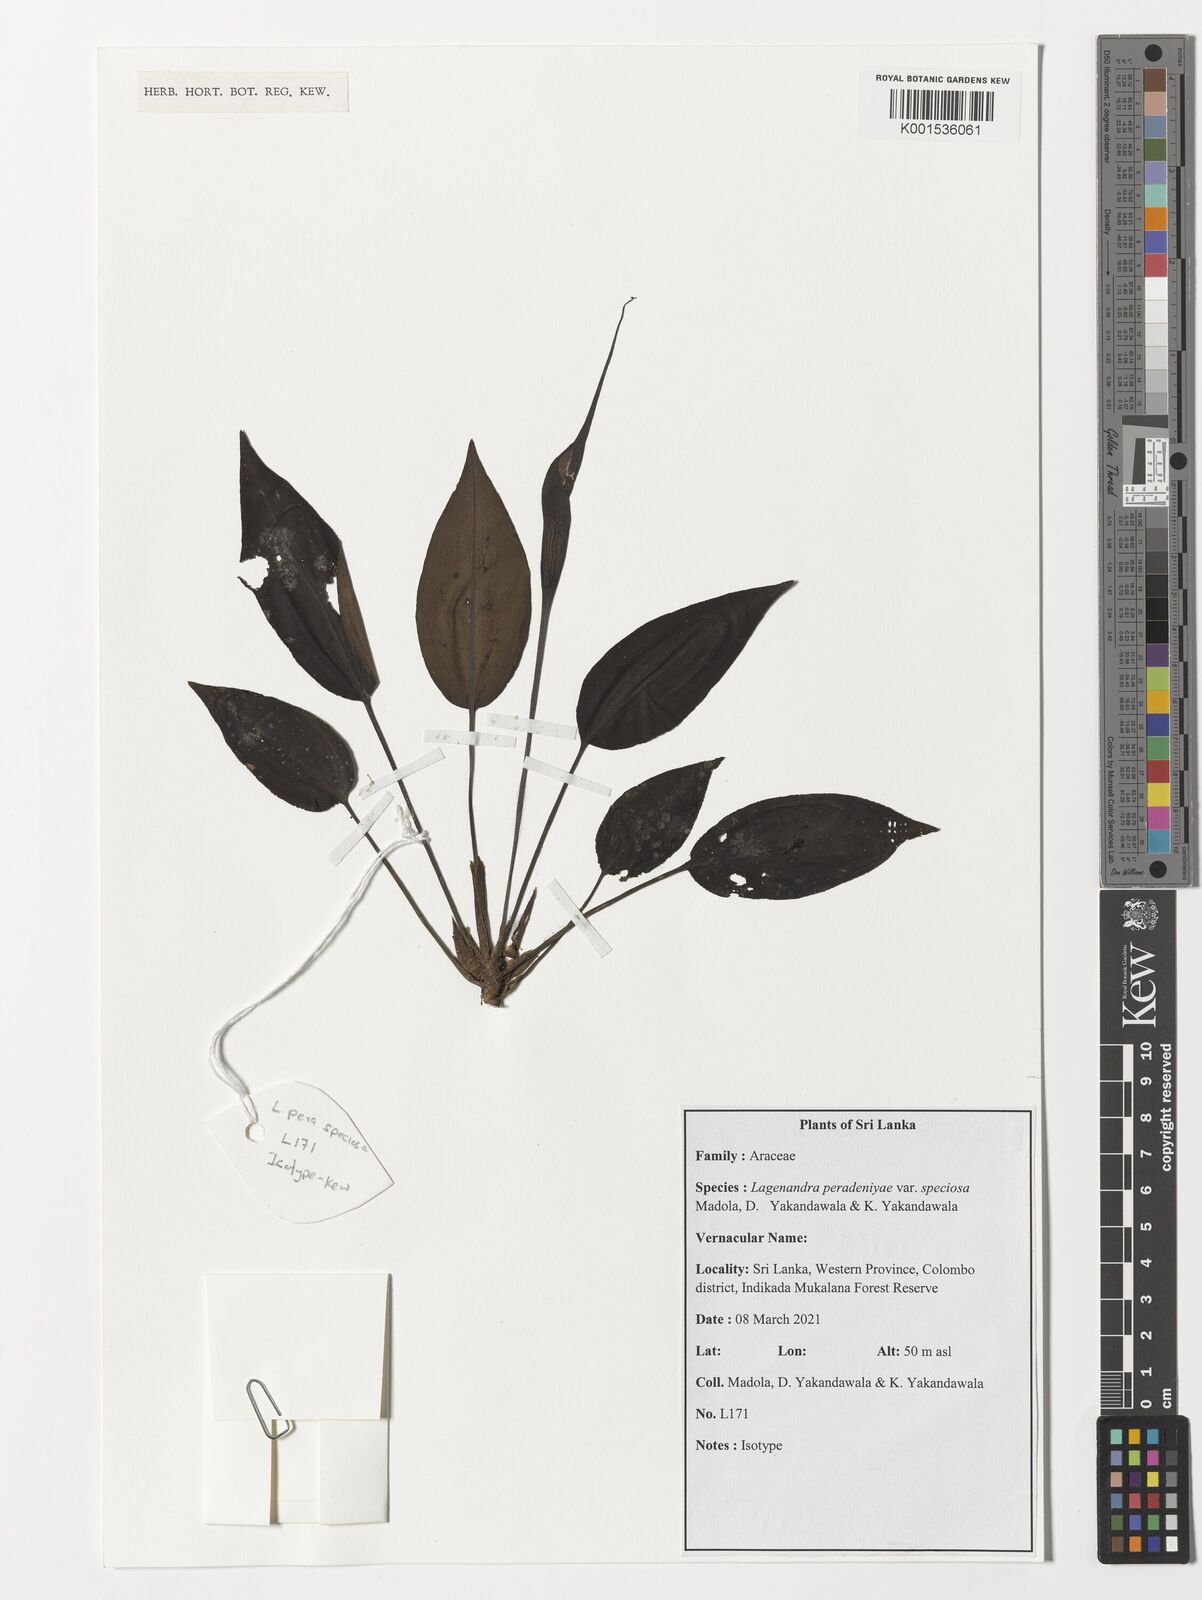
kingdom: Plantae
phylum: Tracheophyta
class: Liliopsida
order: Alismatales
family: Araceae
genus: Lagenandra
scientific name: Lagenandra
